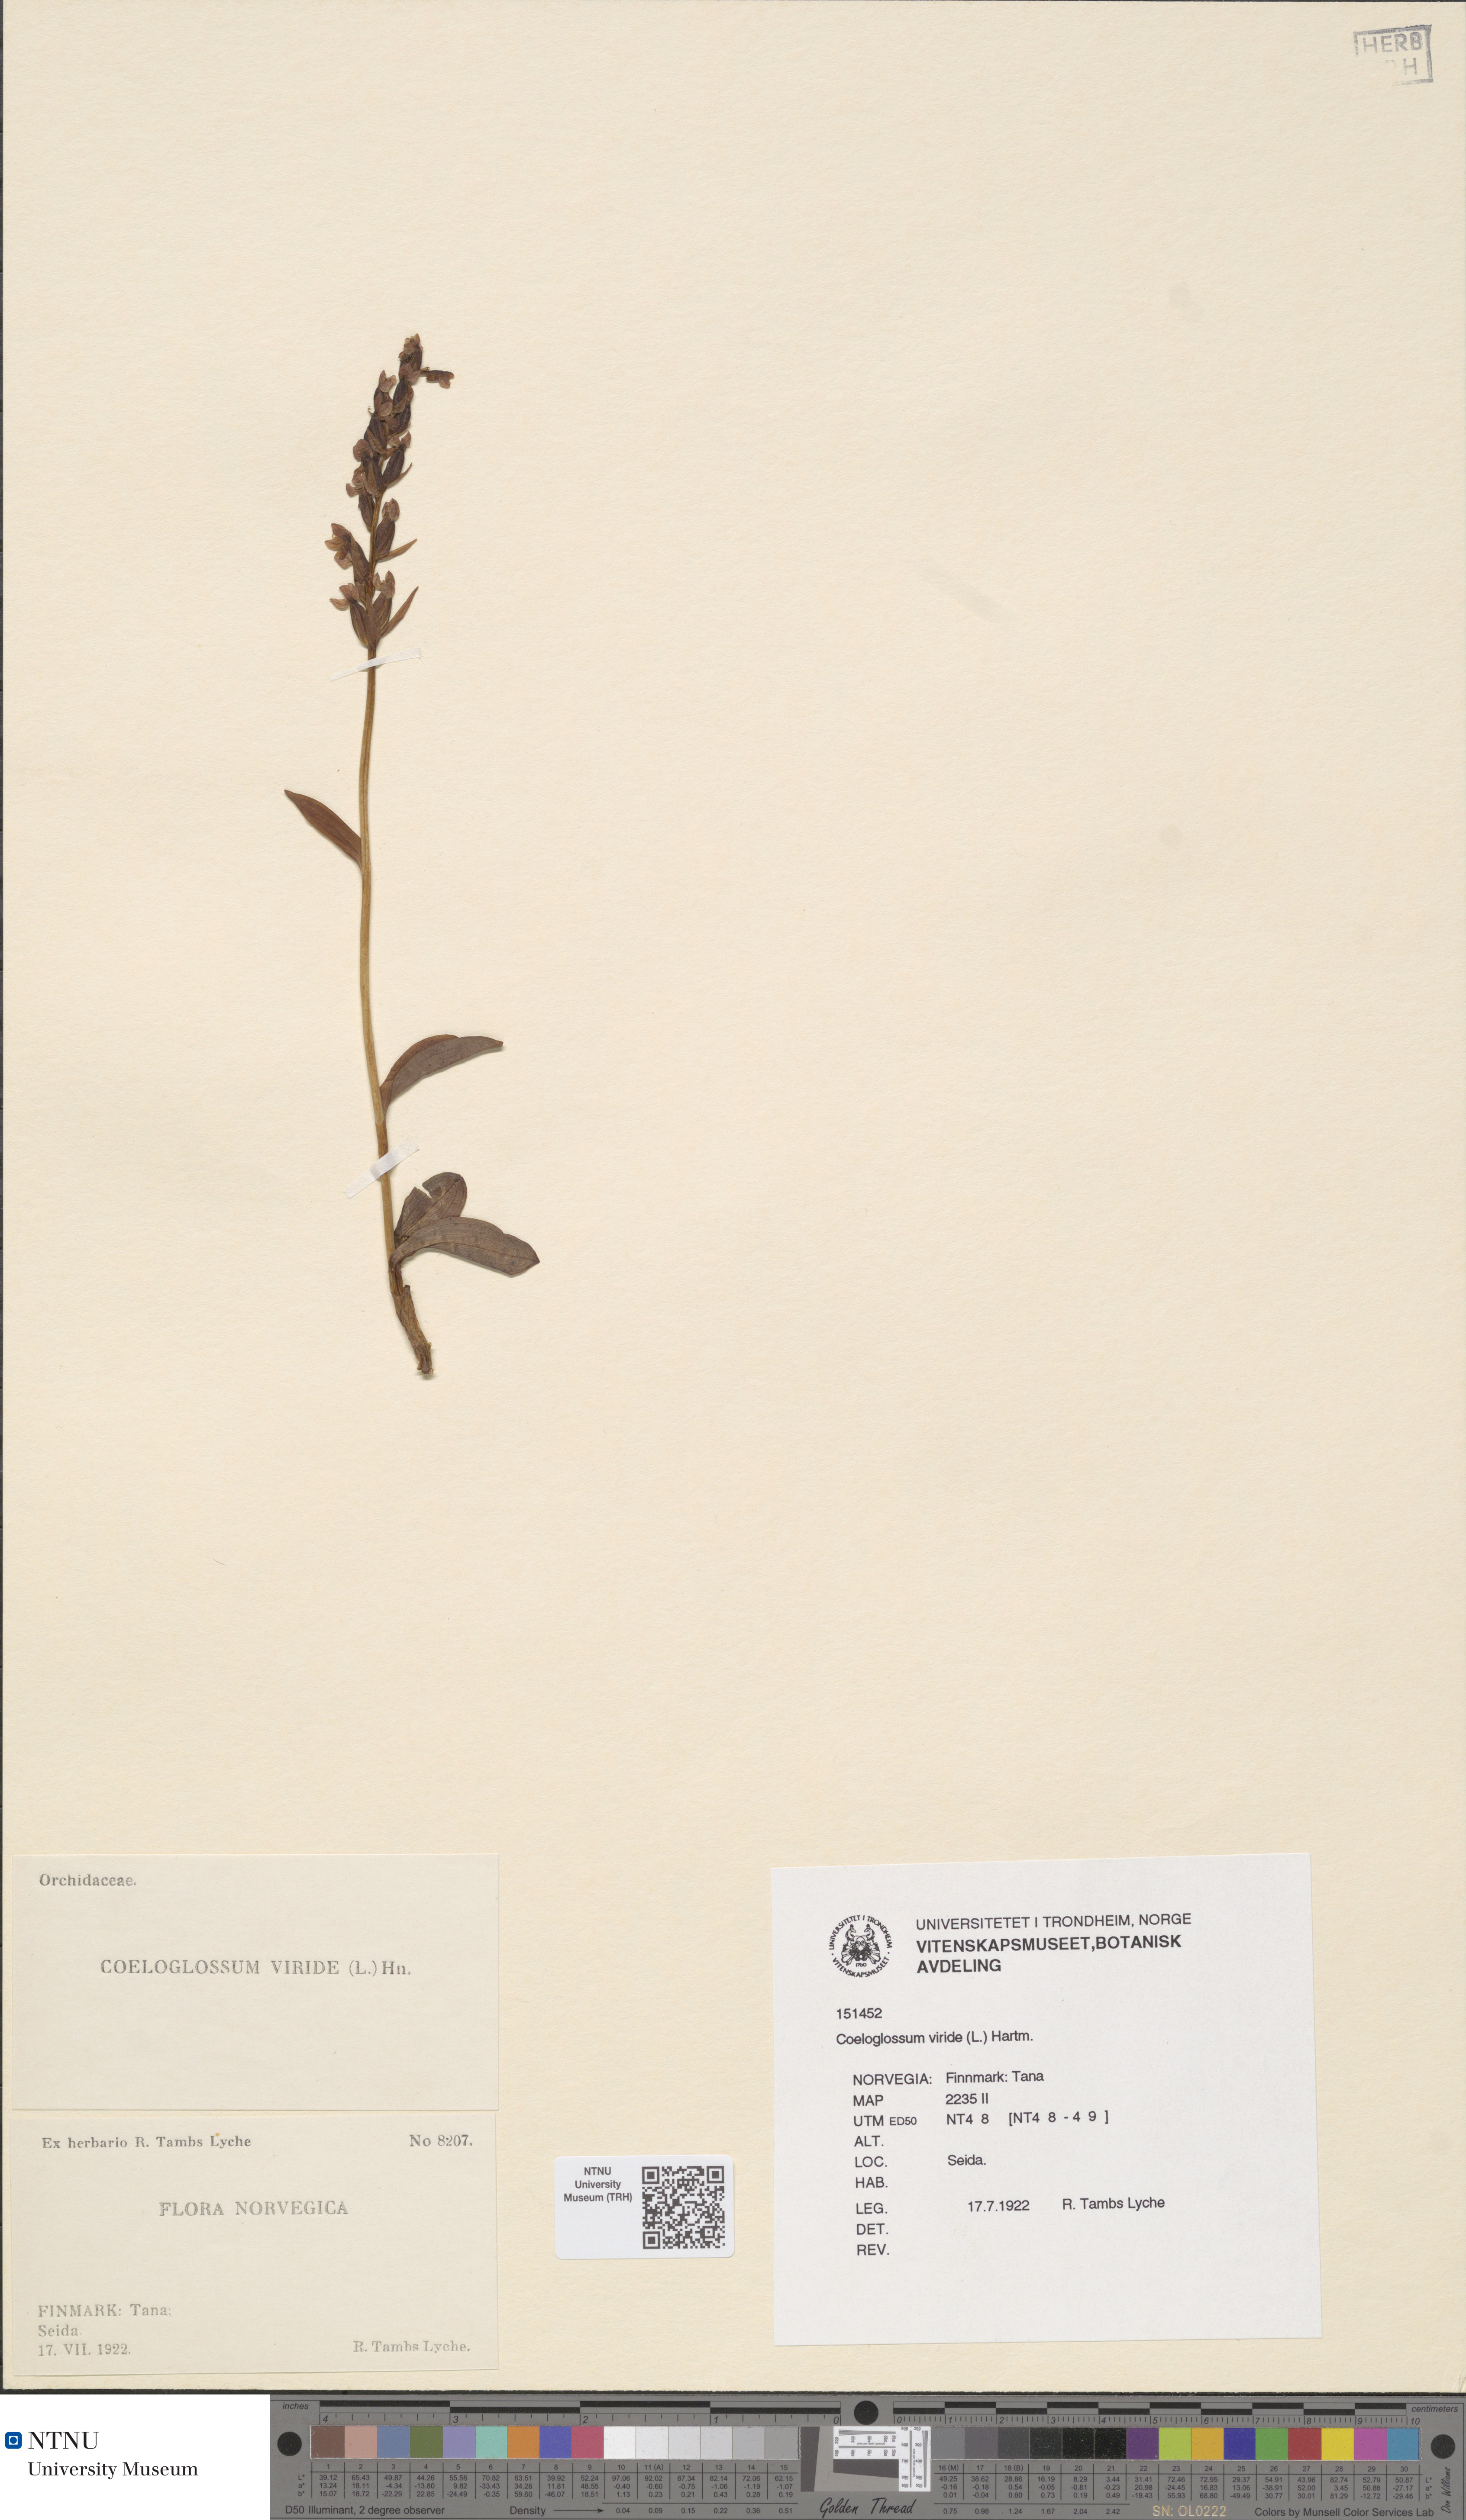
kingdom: Plantae
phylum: Tracheophyta
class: Liliopsida
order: Asparagales
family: Orchidaceae
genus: Dactylorhiza
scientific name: Dactylorhiza viridis
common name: Longbract frog orchid
